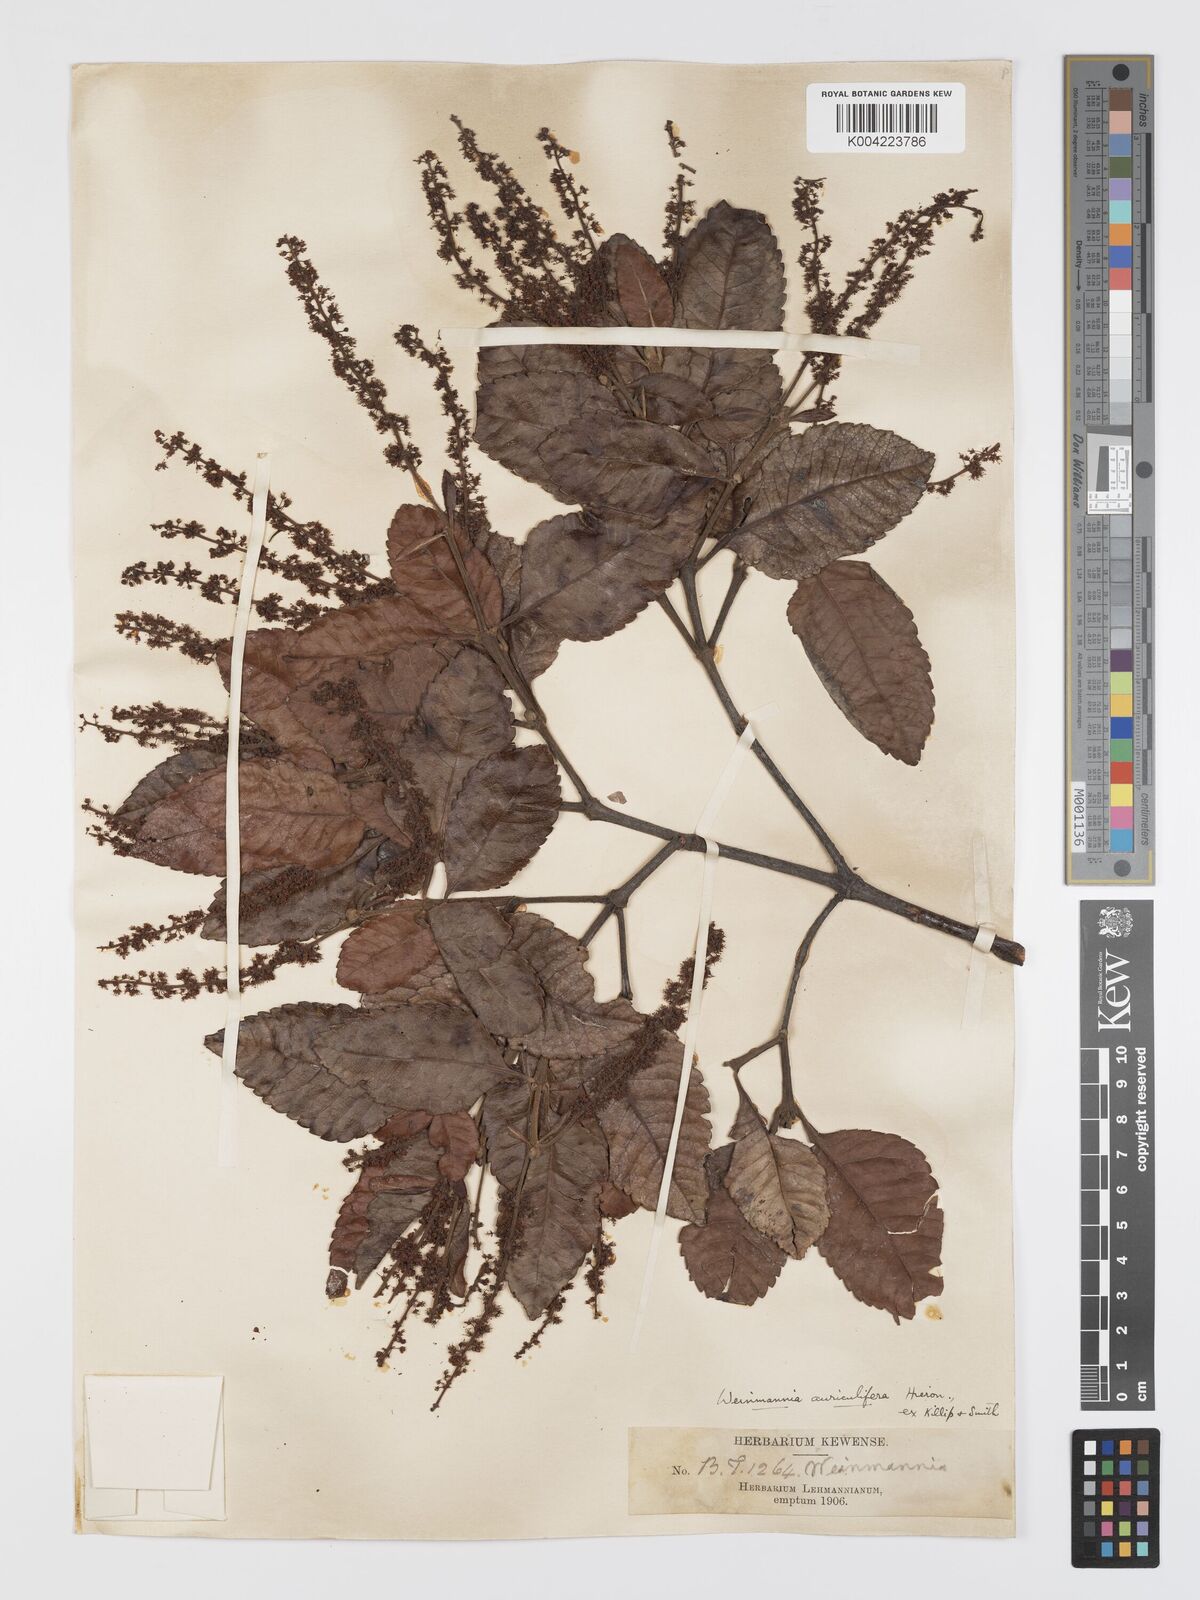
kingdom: Plantae
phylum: Tracheophyta
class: Magnoliopsida
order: Oxalidales
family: Cunoniaceae
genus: Weinmannia
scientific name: Weinmannia cordata
